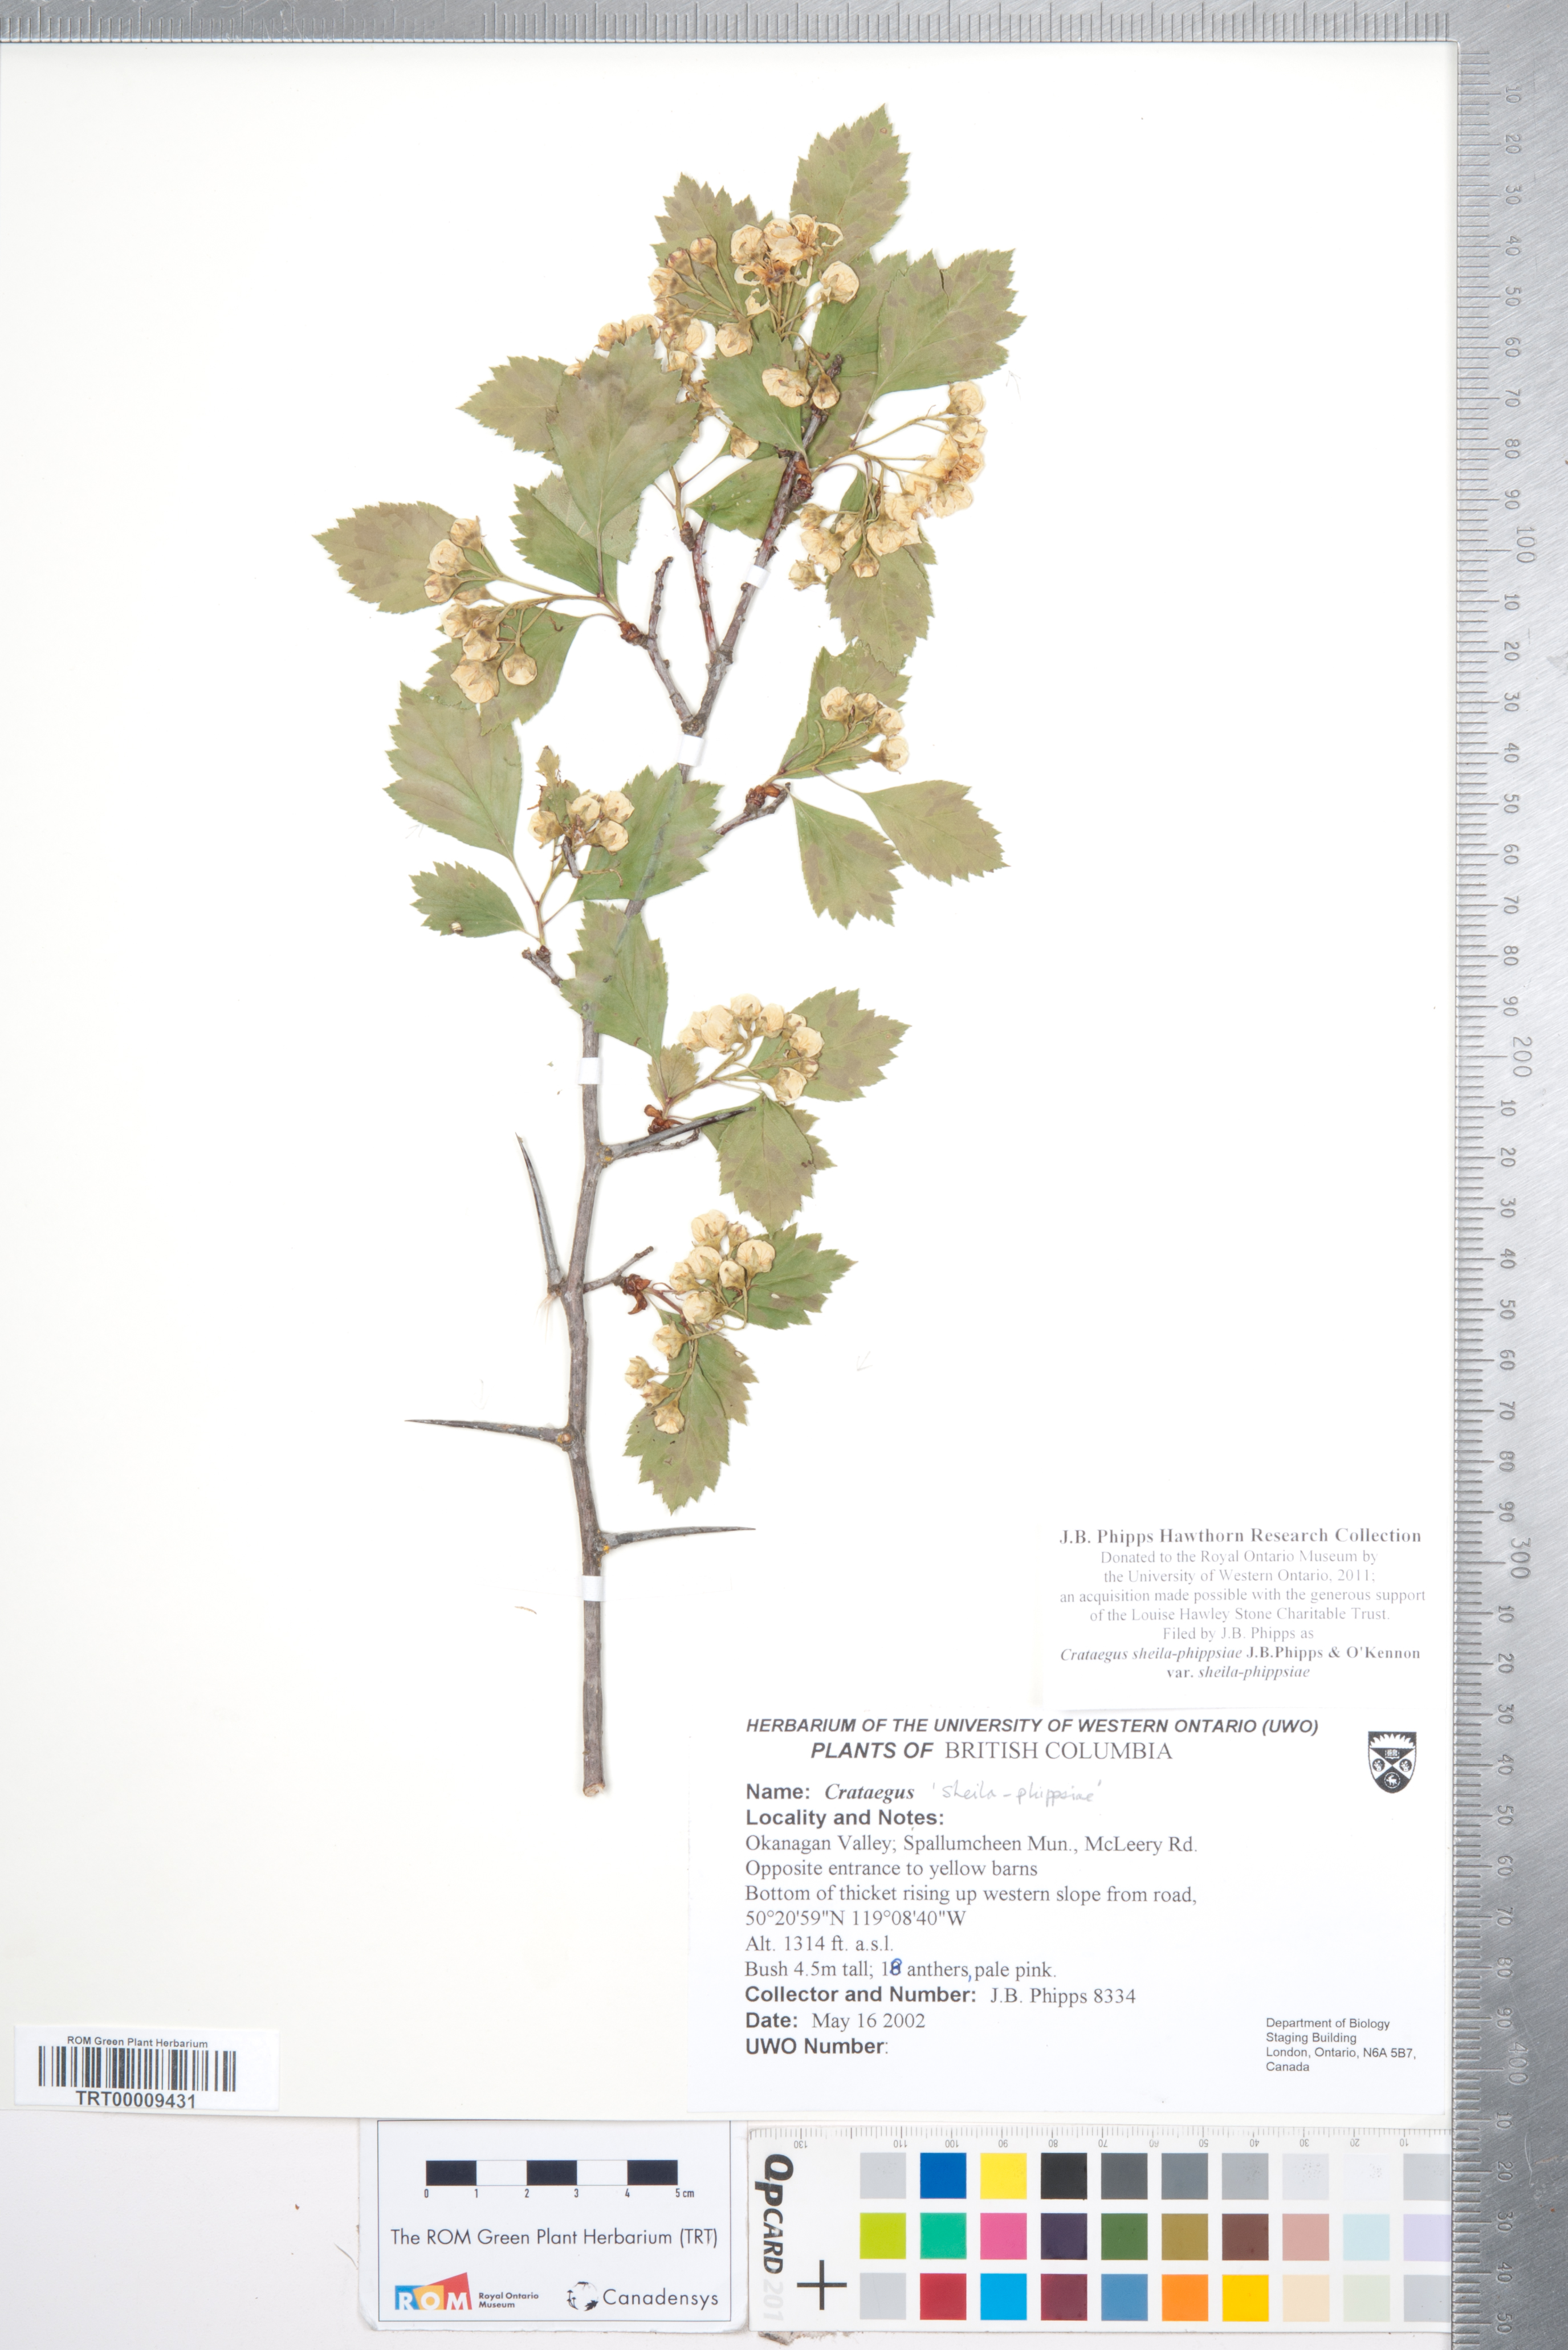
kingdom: Plantae
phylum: Tracheophyta
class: Magnoliopsida
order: Rosales
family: Rosaceae
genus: Crataegus
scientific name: Crataegus sheila-phippsiae
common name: Sheila phipps' hawthorn
